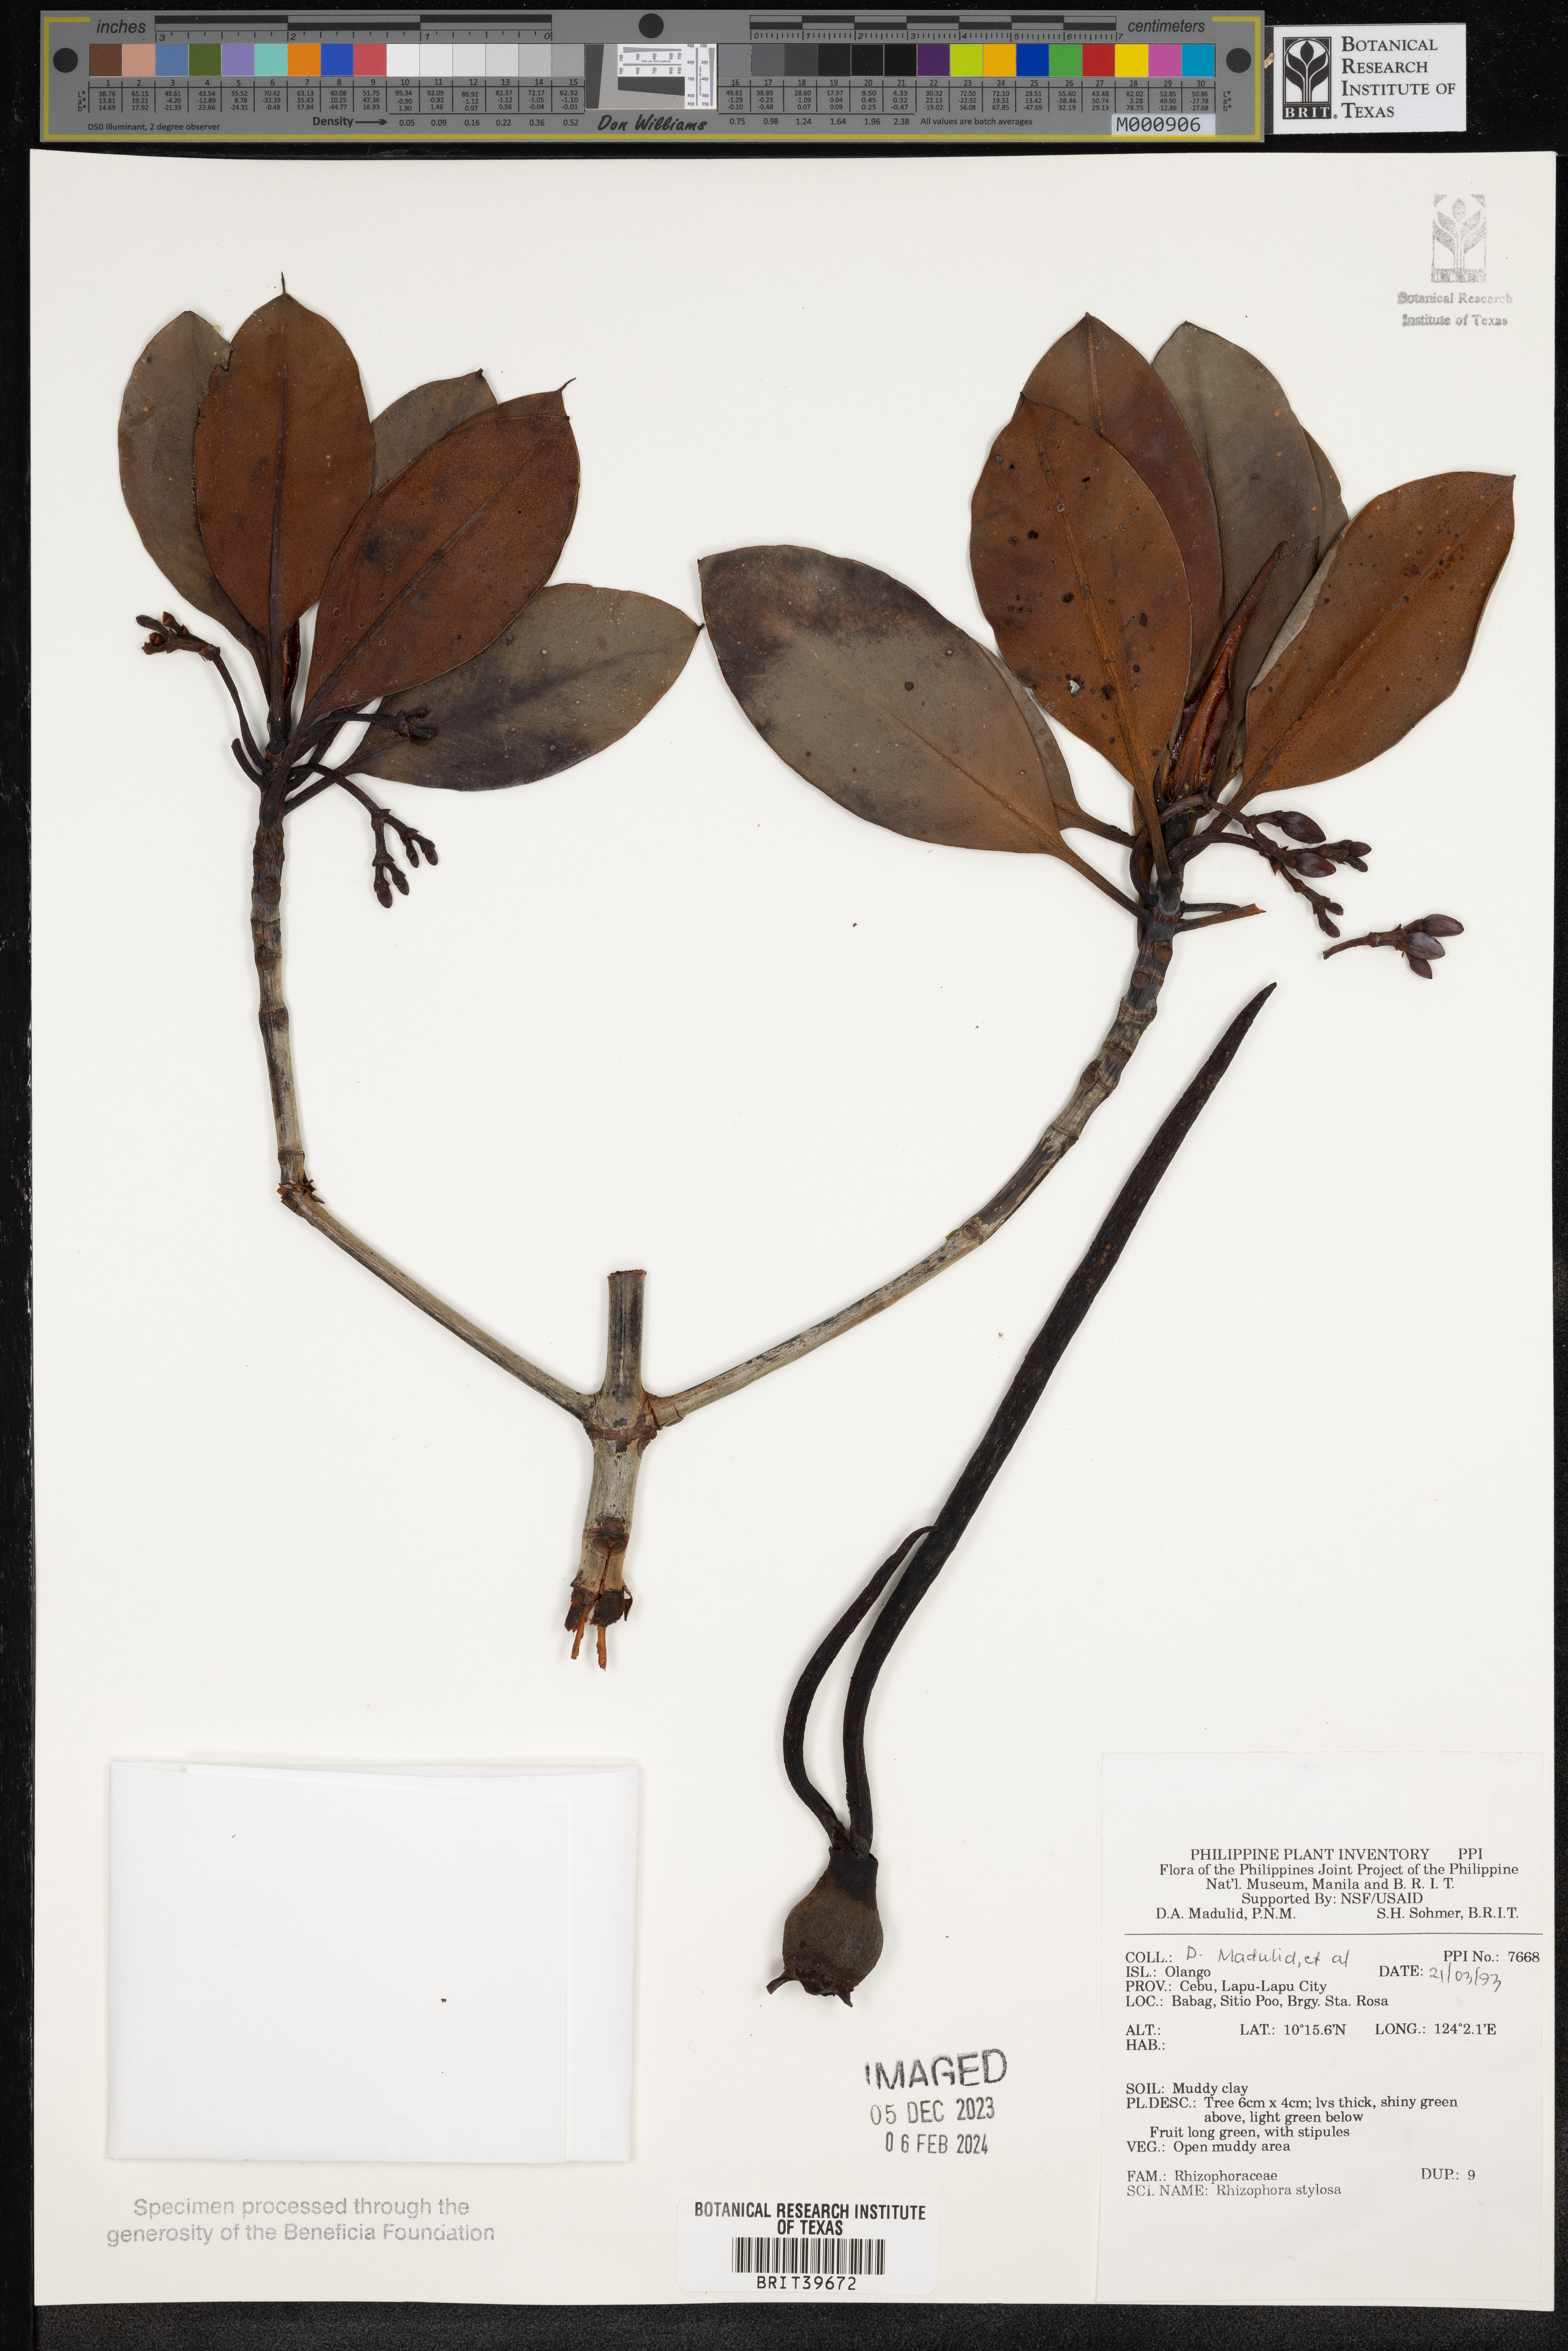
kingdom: Plantae
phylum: Tracheophyta
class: Magnoliopsida
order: Malpighiales
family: Rhizophoraceae
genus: Rhizophora
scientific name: Rhizophora stylosa
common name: Red mangrove
